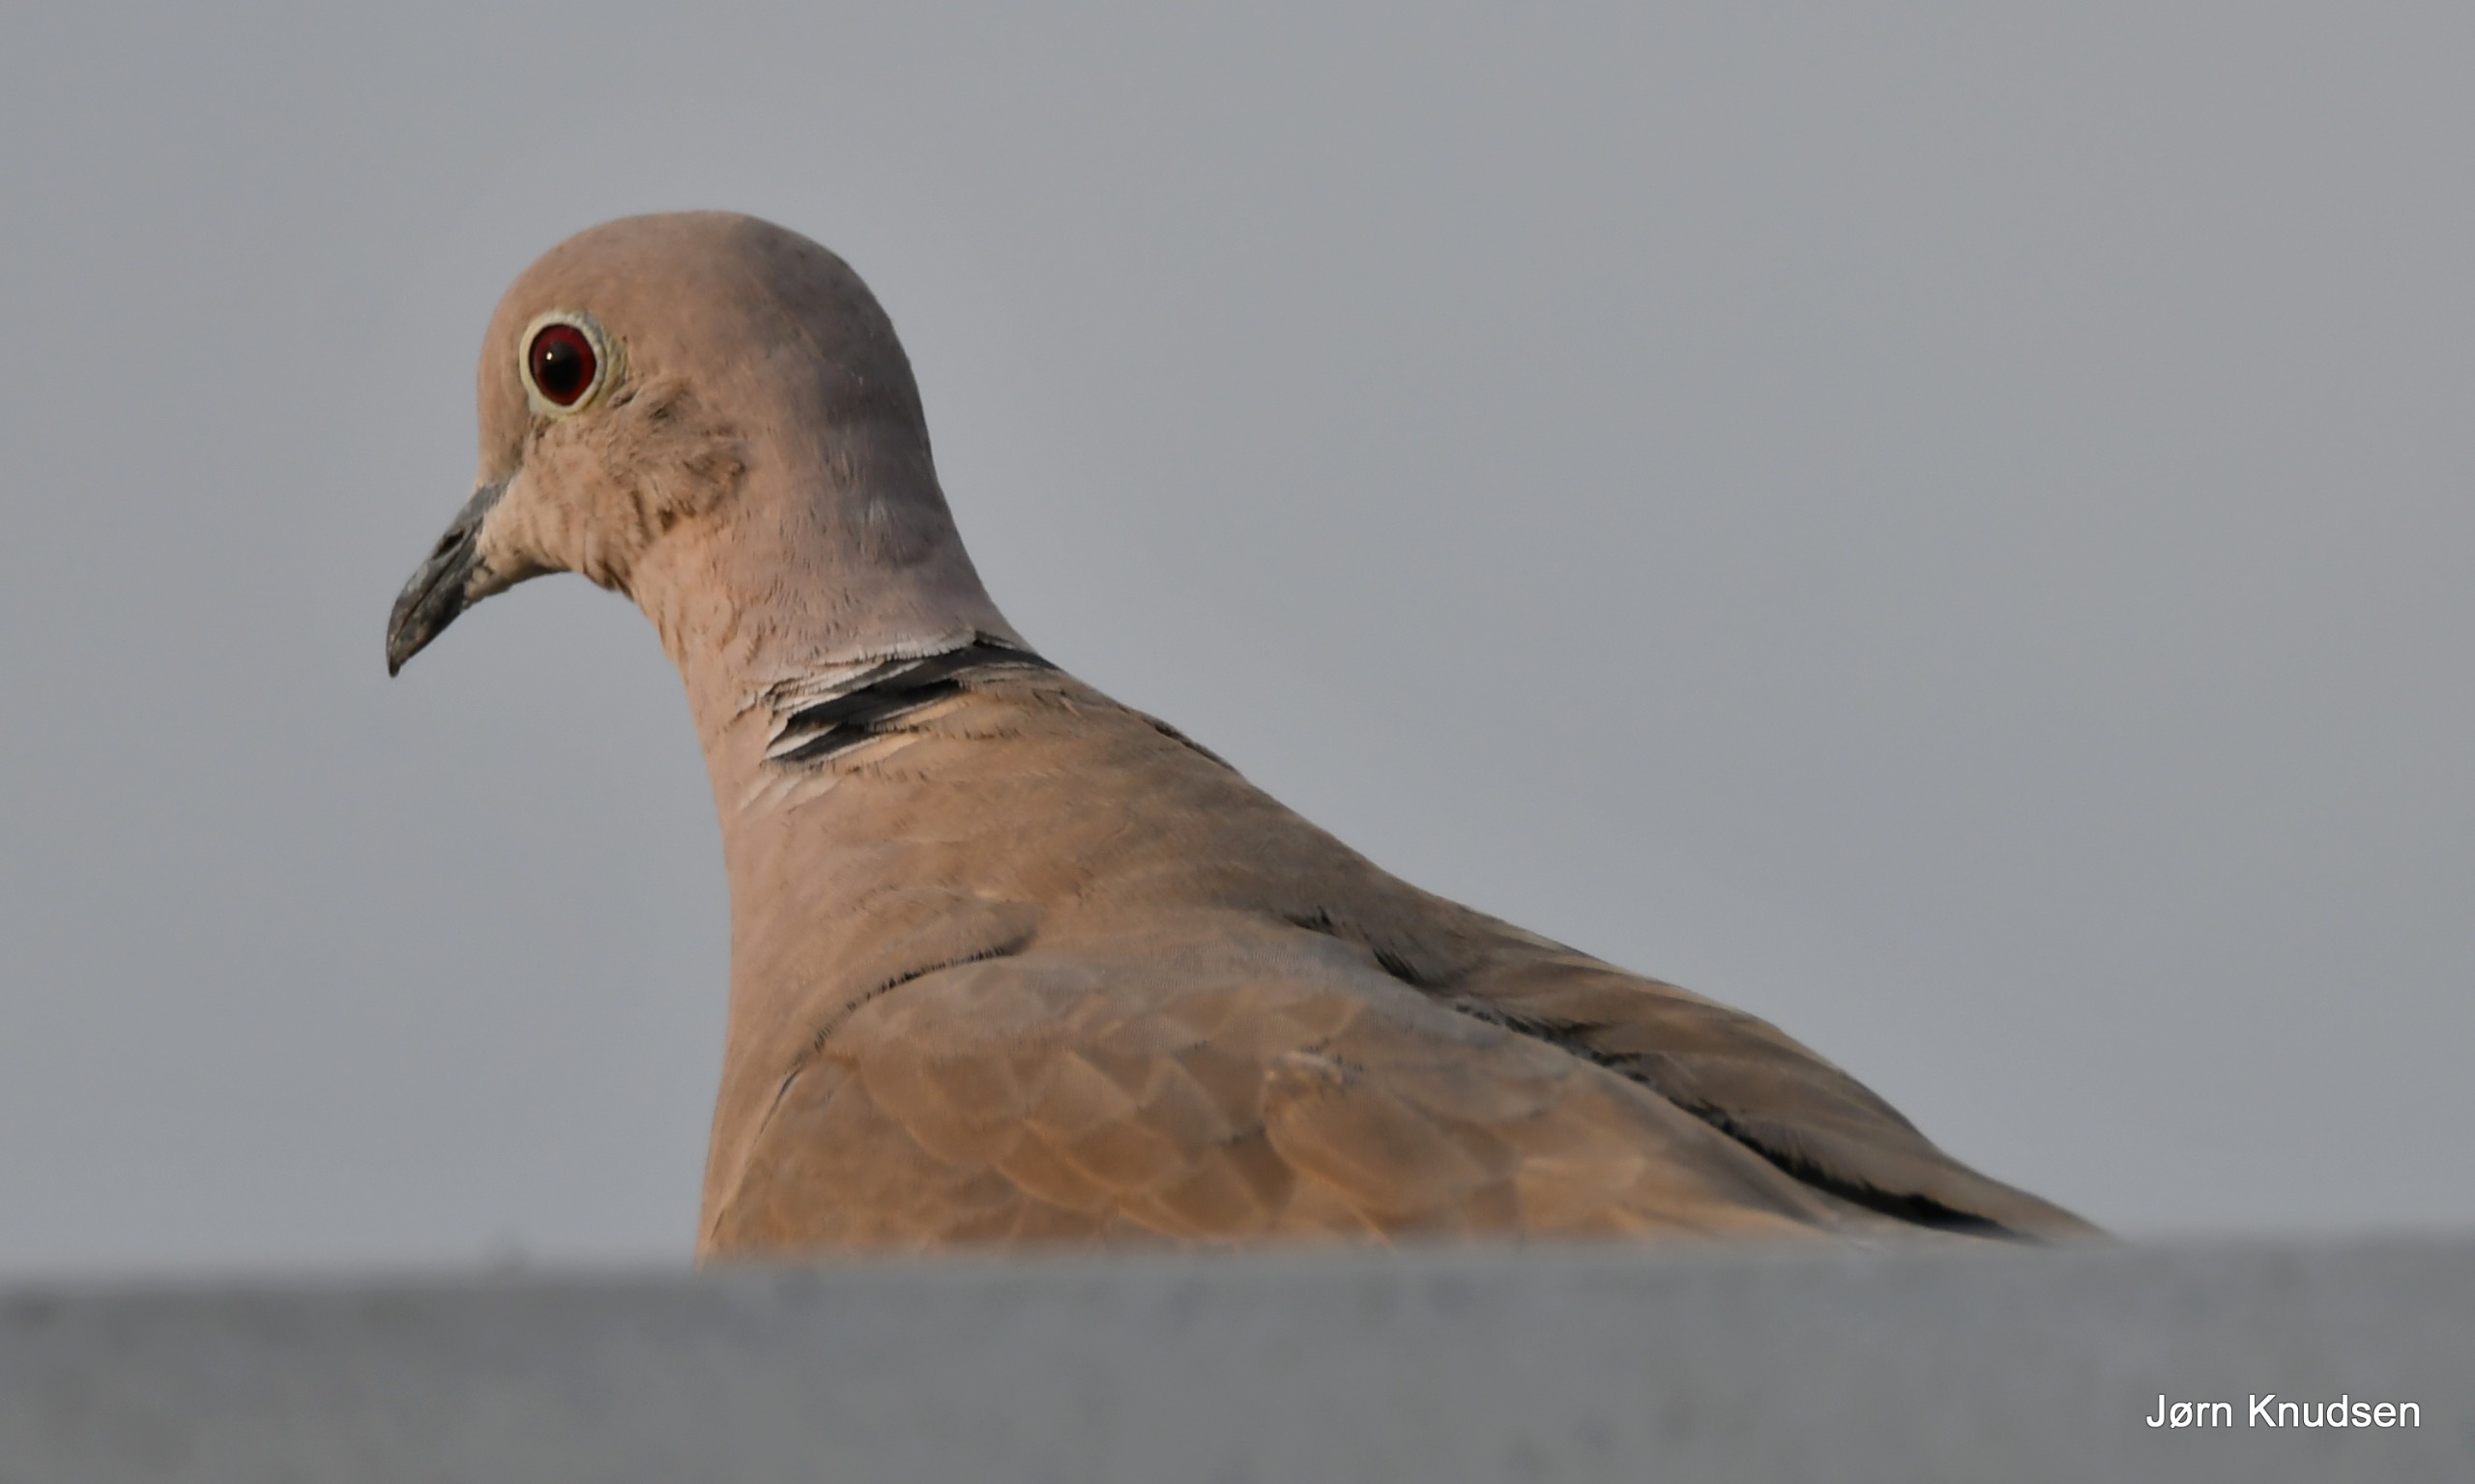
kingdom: Animalia
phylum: Chordata
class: Aves
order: Columbiformes
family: Columbidae
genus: Streptopelia
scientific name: Streptopelia decaocto
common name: Tyrkerdue
